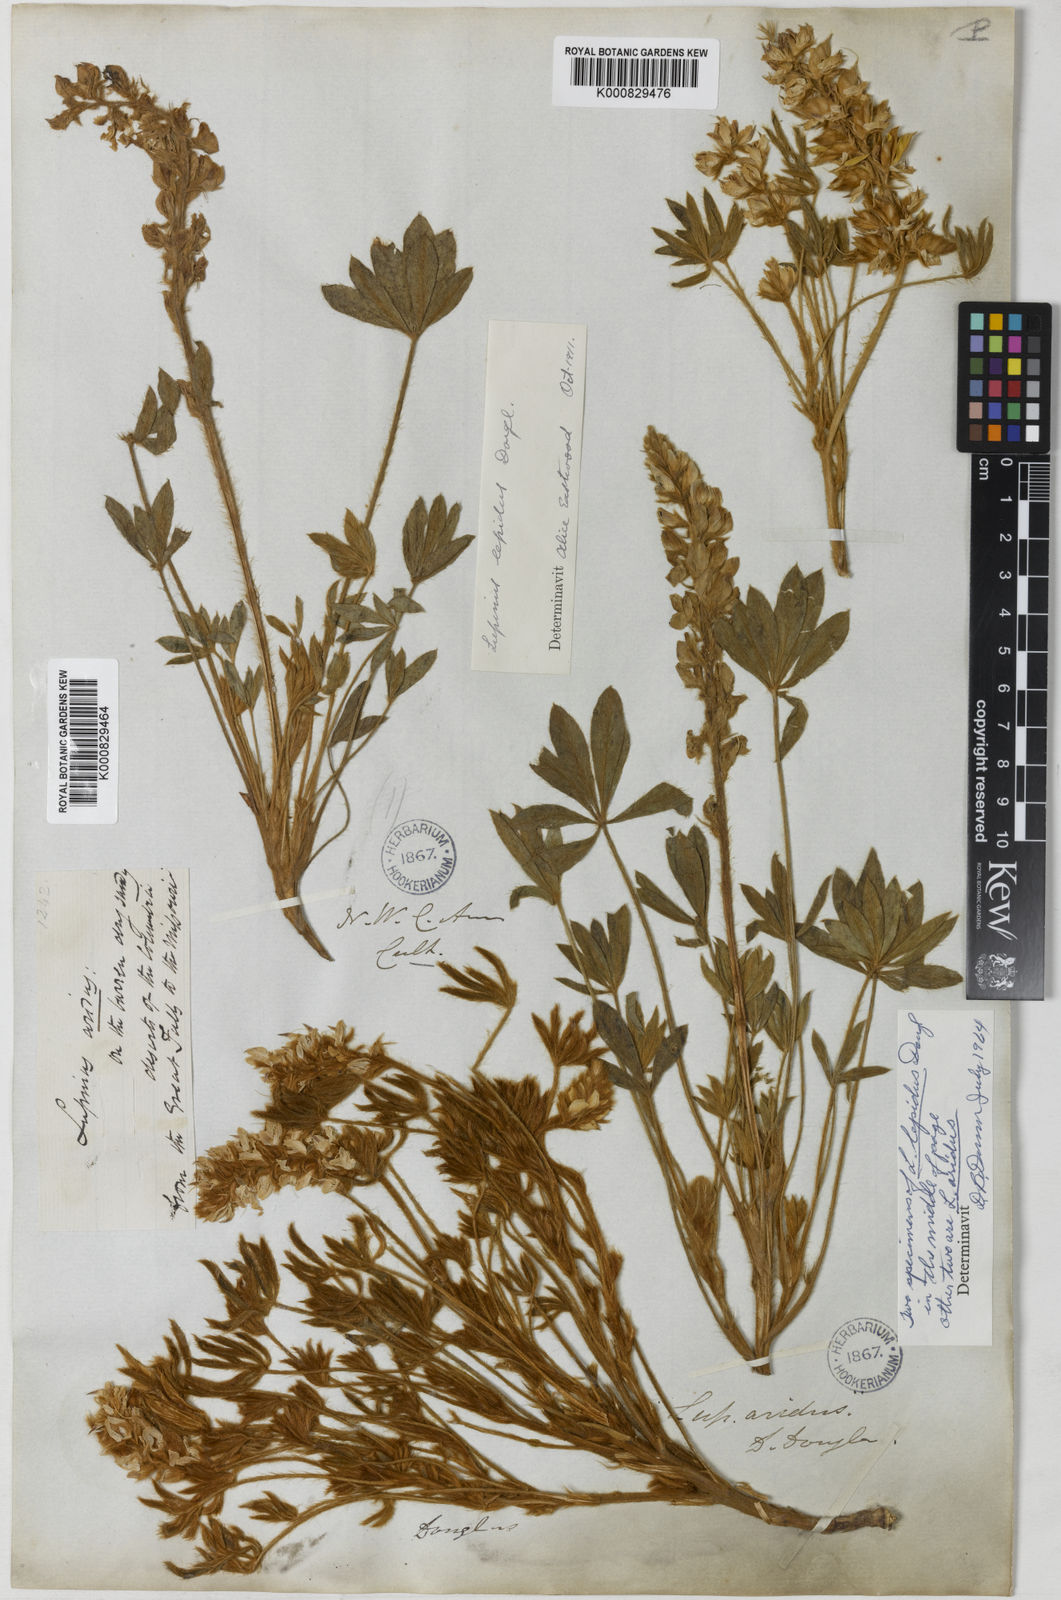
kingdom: Plantae
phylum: Tracheophyta
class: Magnoliopsida
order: Fabales
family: Fabaceae
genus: Lupinus
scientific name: Lupinus
